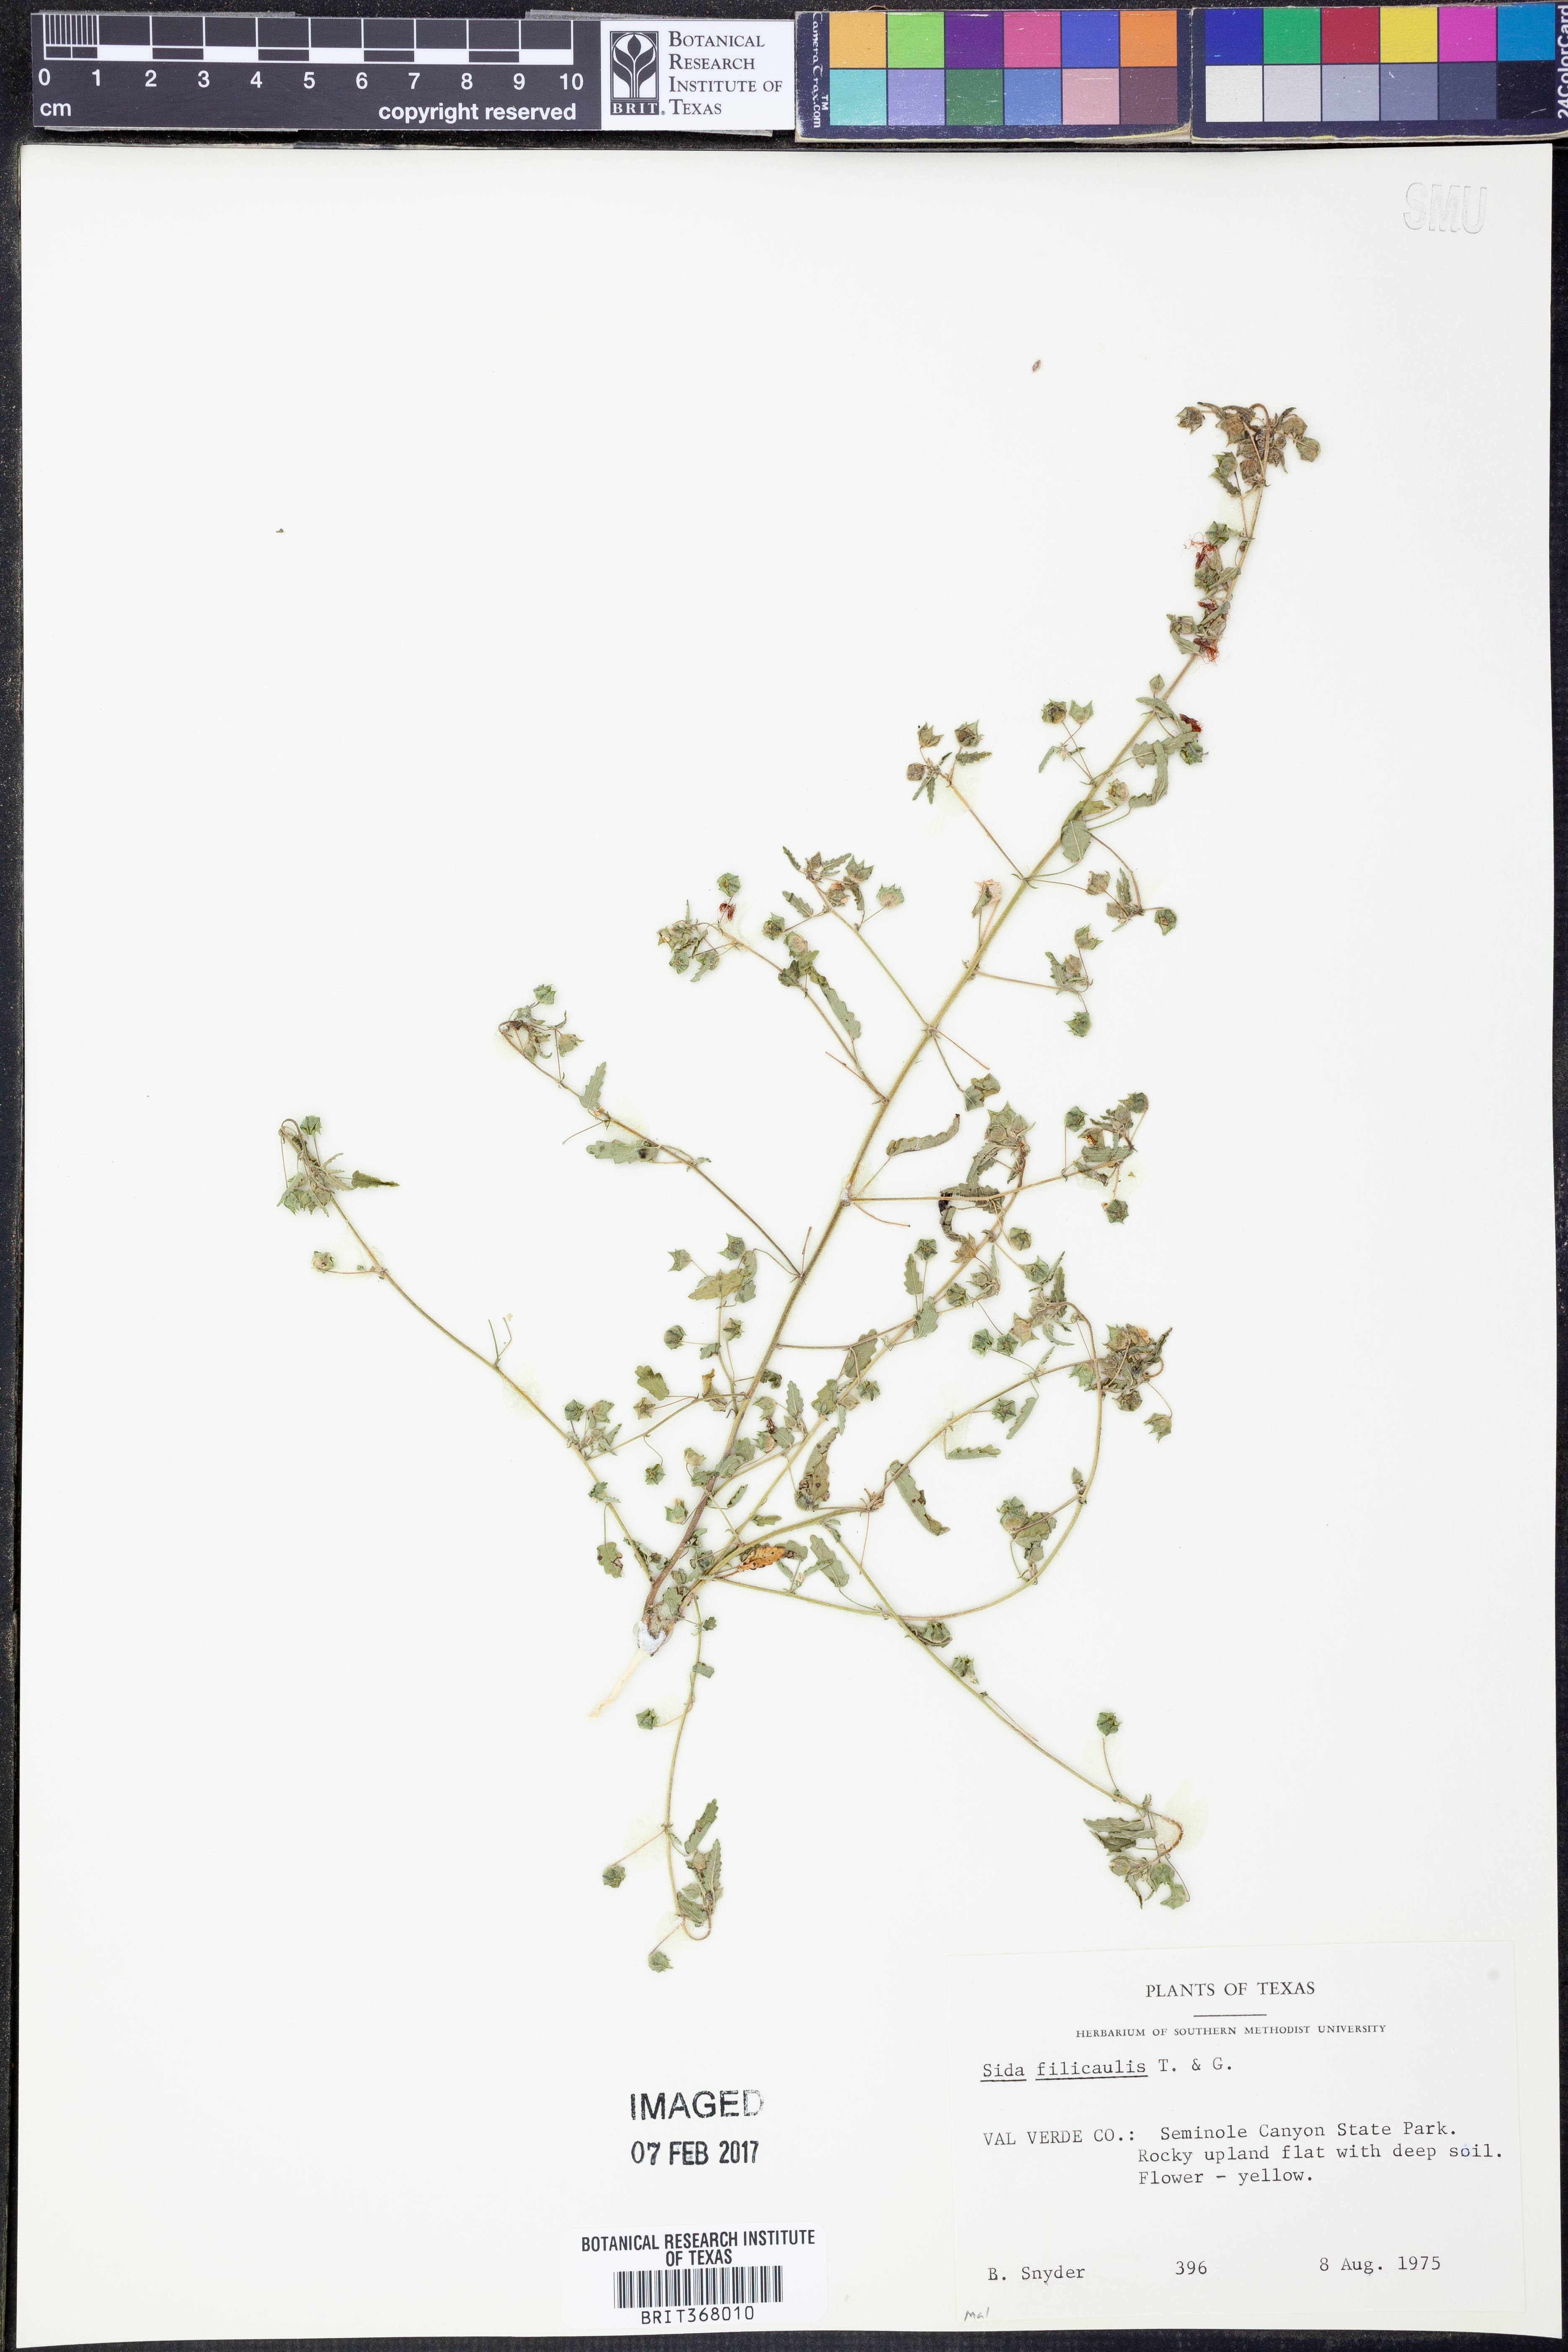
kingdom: Plantae
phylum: Tracheophyta
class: Magnoliopsida
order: Malvales
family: Malvaceae
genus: Sida
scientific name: Sida abutilifolia
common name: Spreading fanpetals
